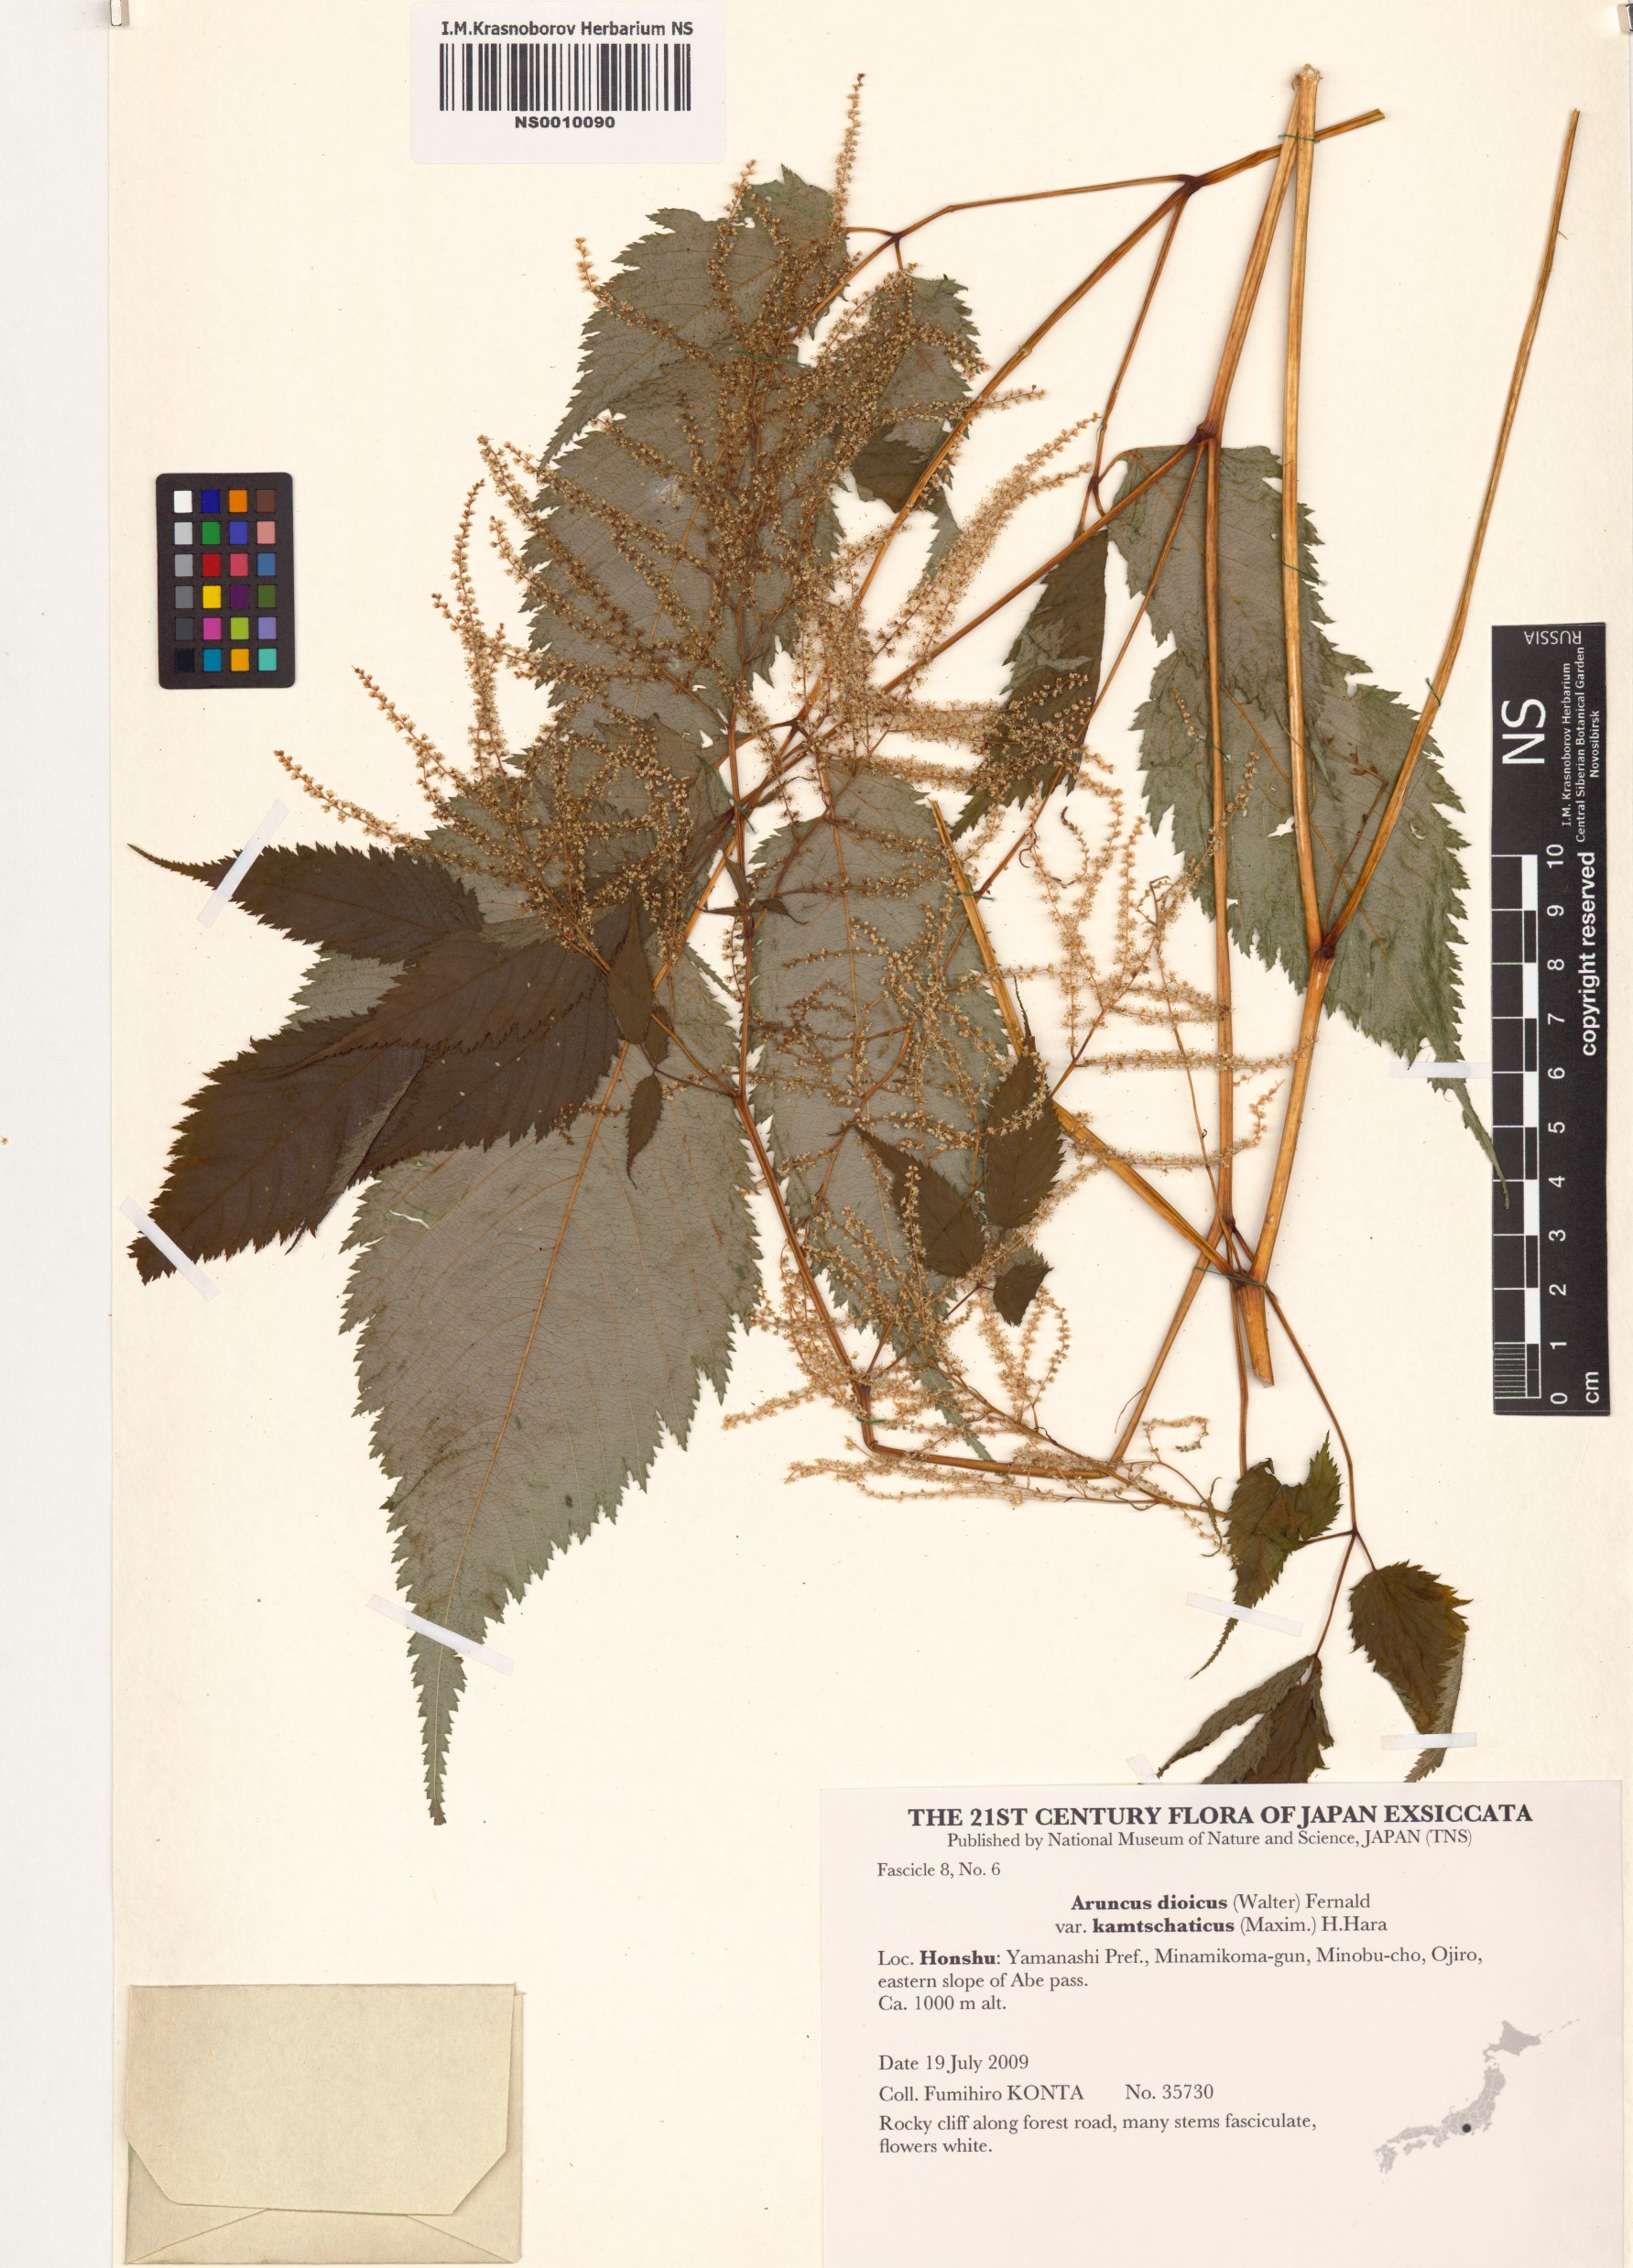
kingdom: Plantae
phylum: Tracheophyta
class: Magnoliopsida
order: Rosales
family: Rosaceae
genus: Aruncus
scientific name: Aruncus dioicus
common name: Buck's-beard
